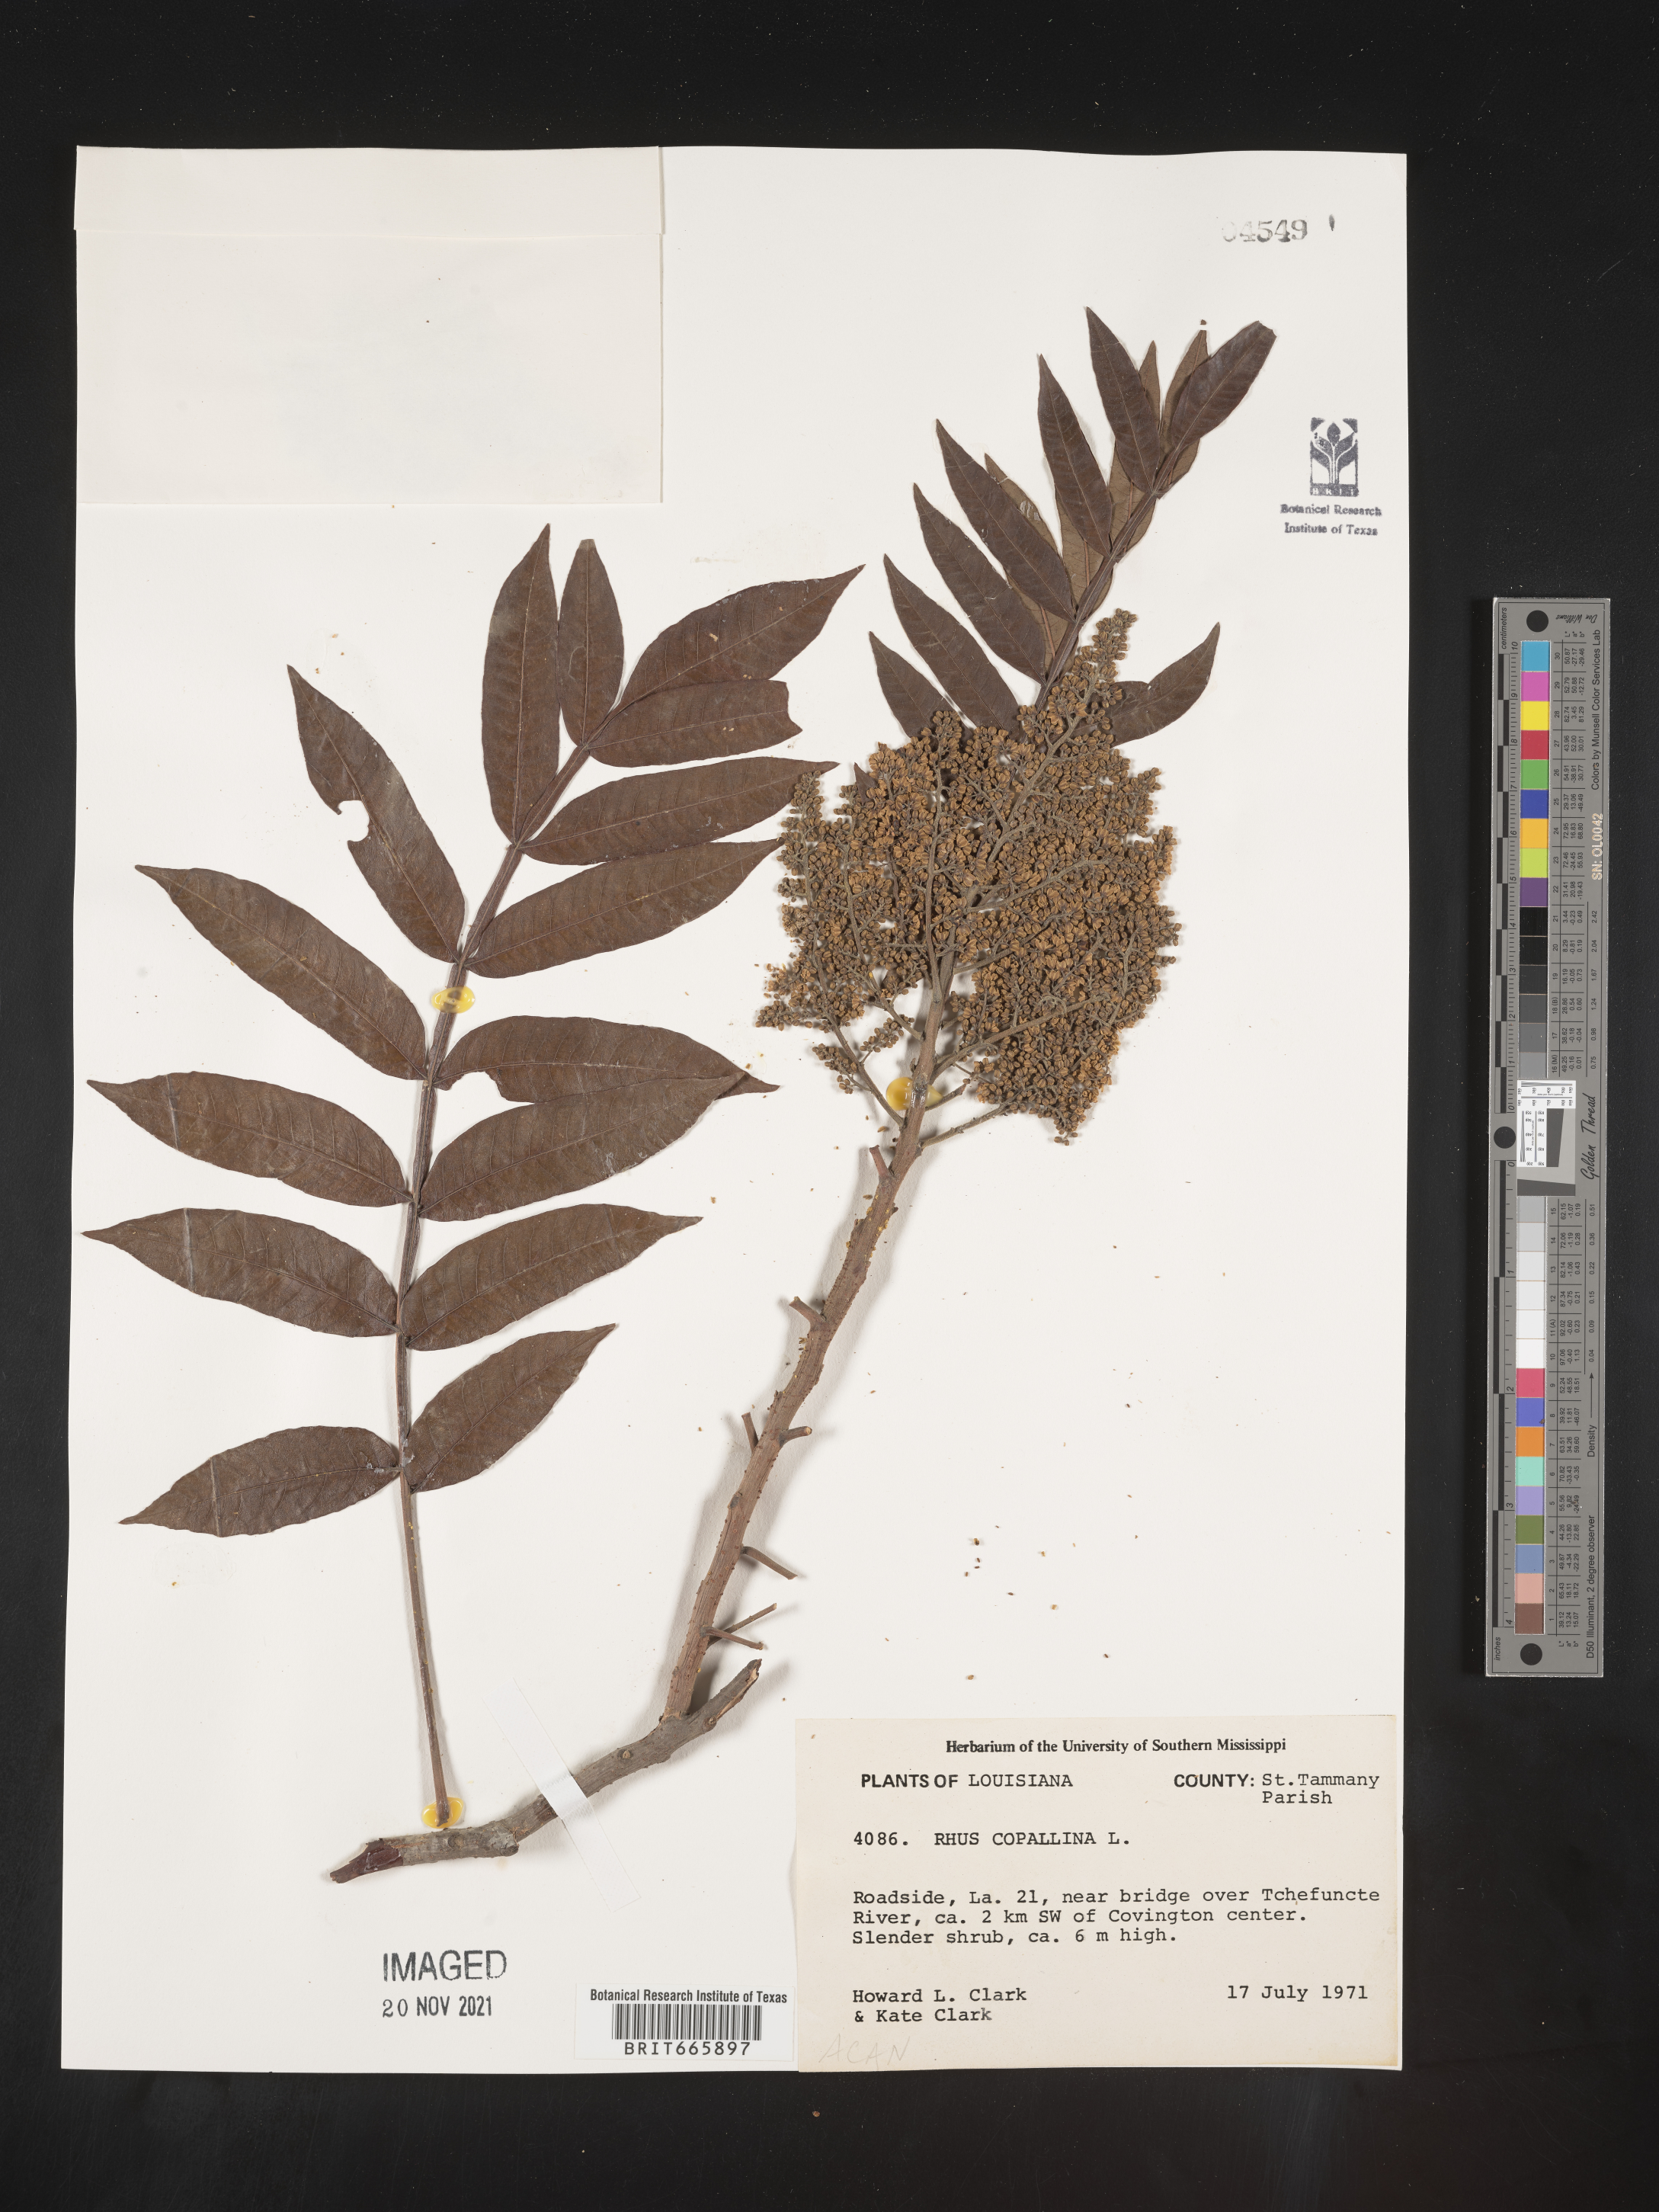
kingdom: Plantae
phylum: Tracheophyta
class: Magnoliopsida
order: Sapindales
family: Anacardiaceae
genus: Rhus
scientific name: Rhus copallina
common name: Shining sumac
